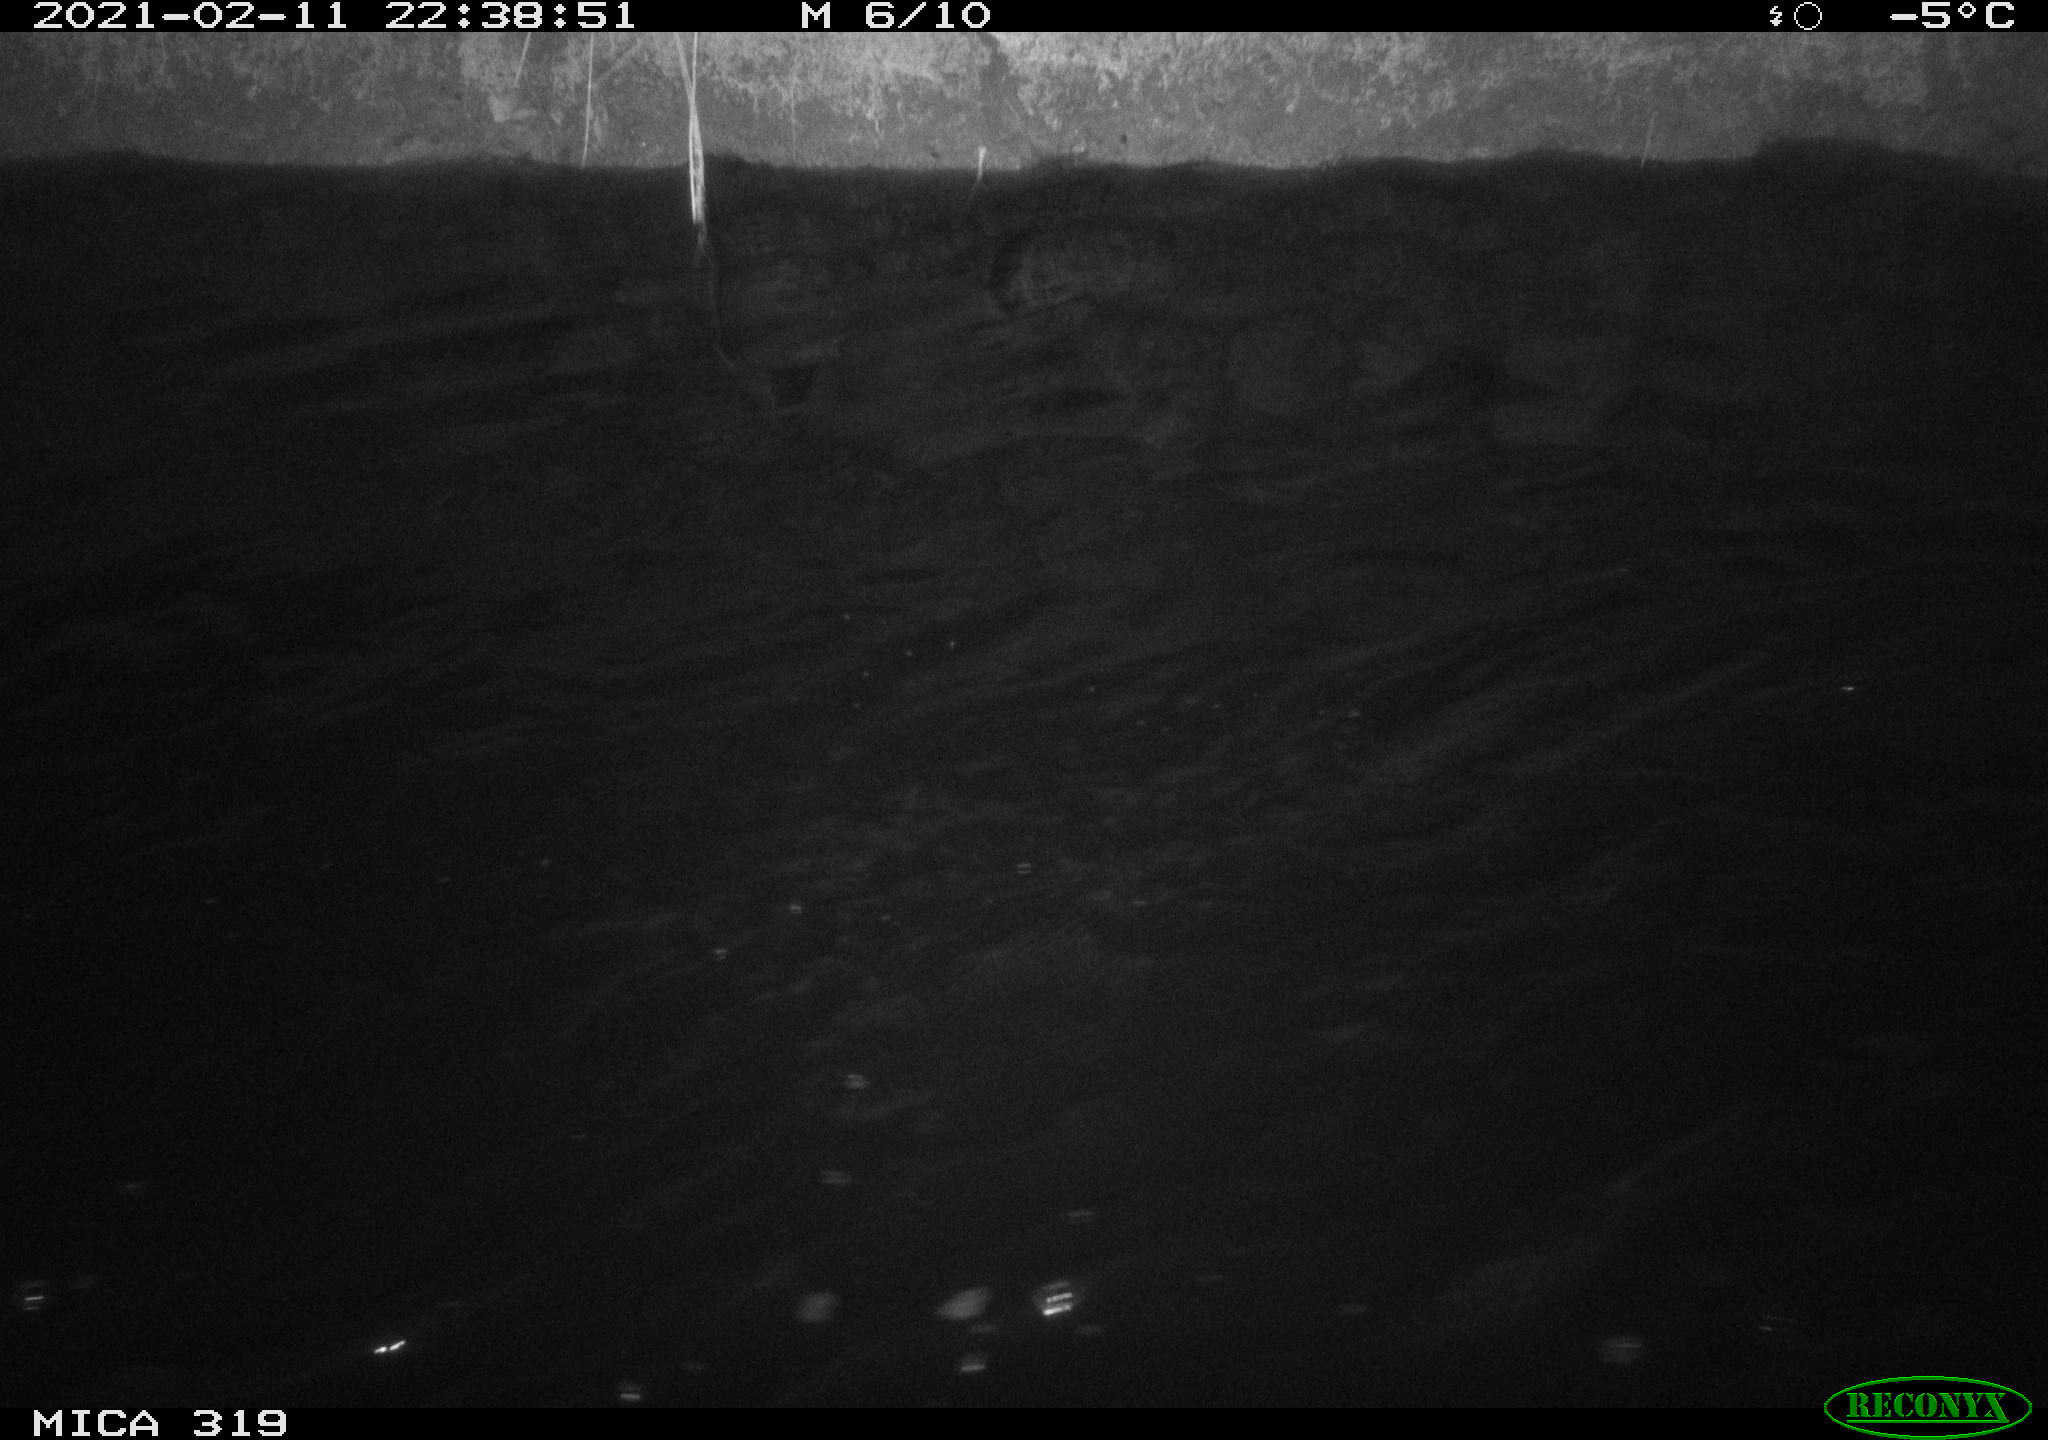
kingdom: Animalia
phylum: Chordata
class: Aves
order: Anseriformes
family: Anatidae
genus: Anas
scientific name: Anas platyrhynchos
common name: Mallard
